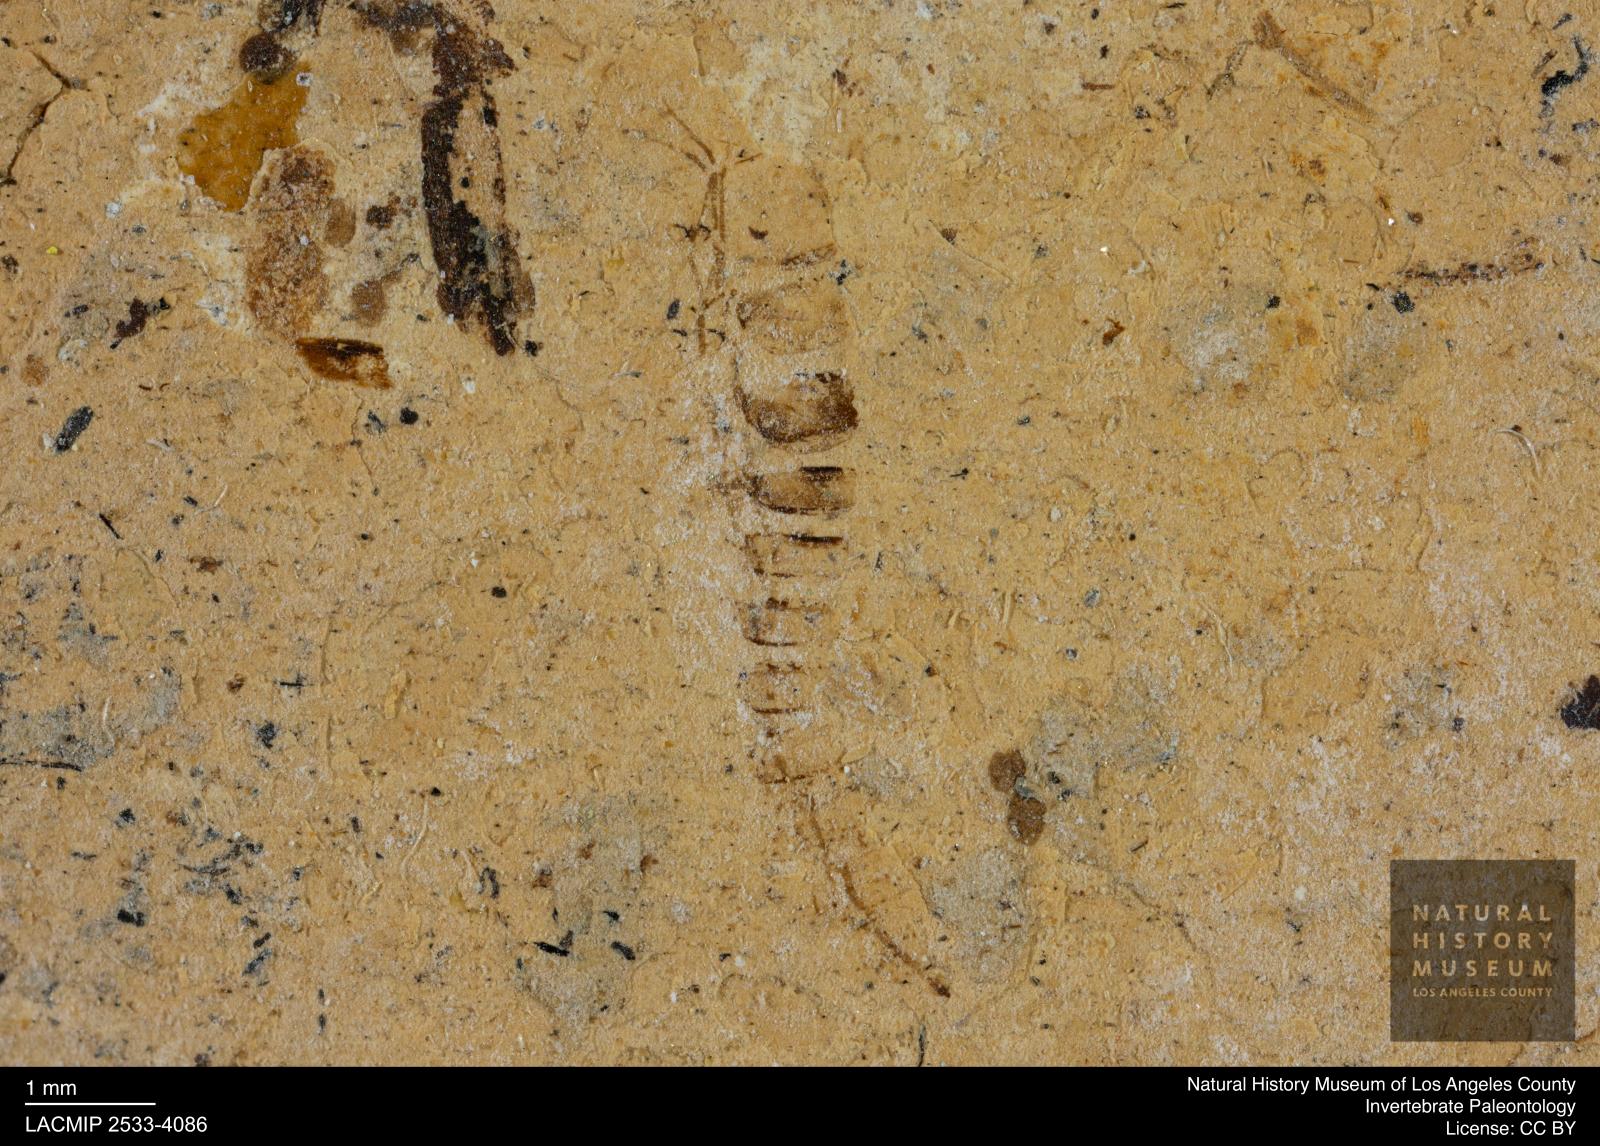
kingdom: Animalia
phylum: Arthropoda
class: Insecta
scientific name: Insecta
